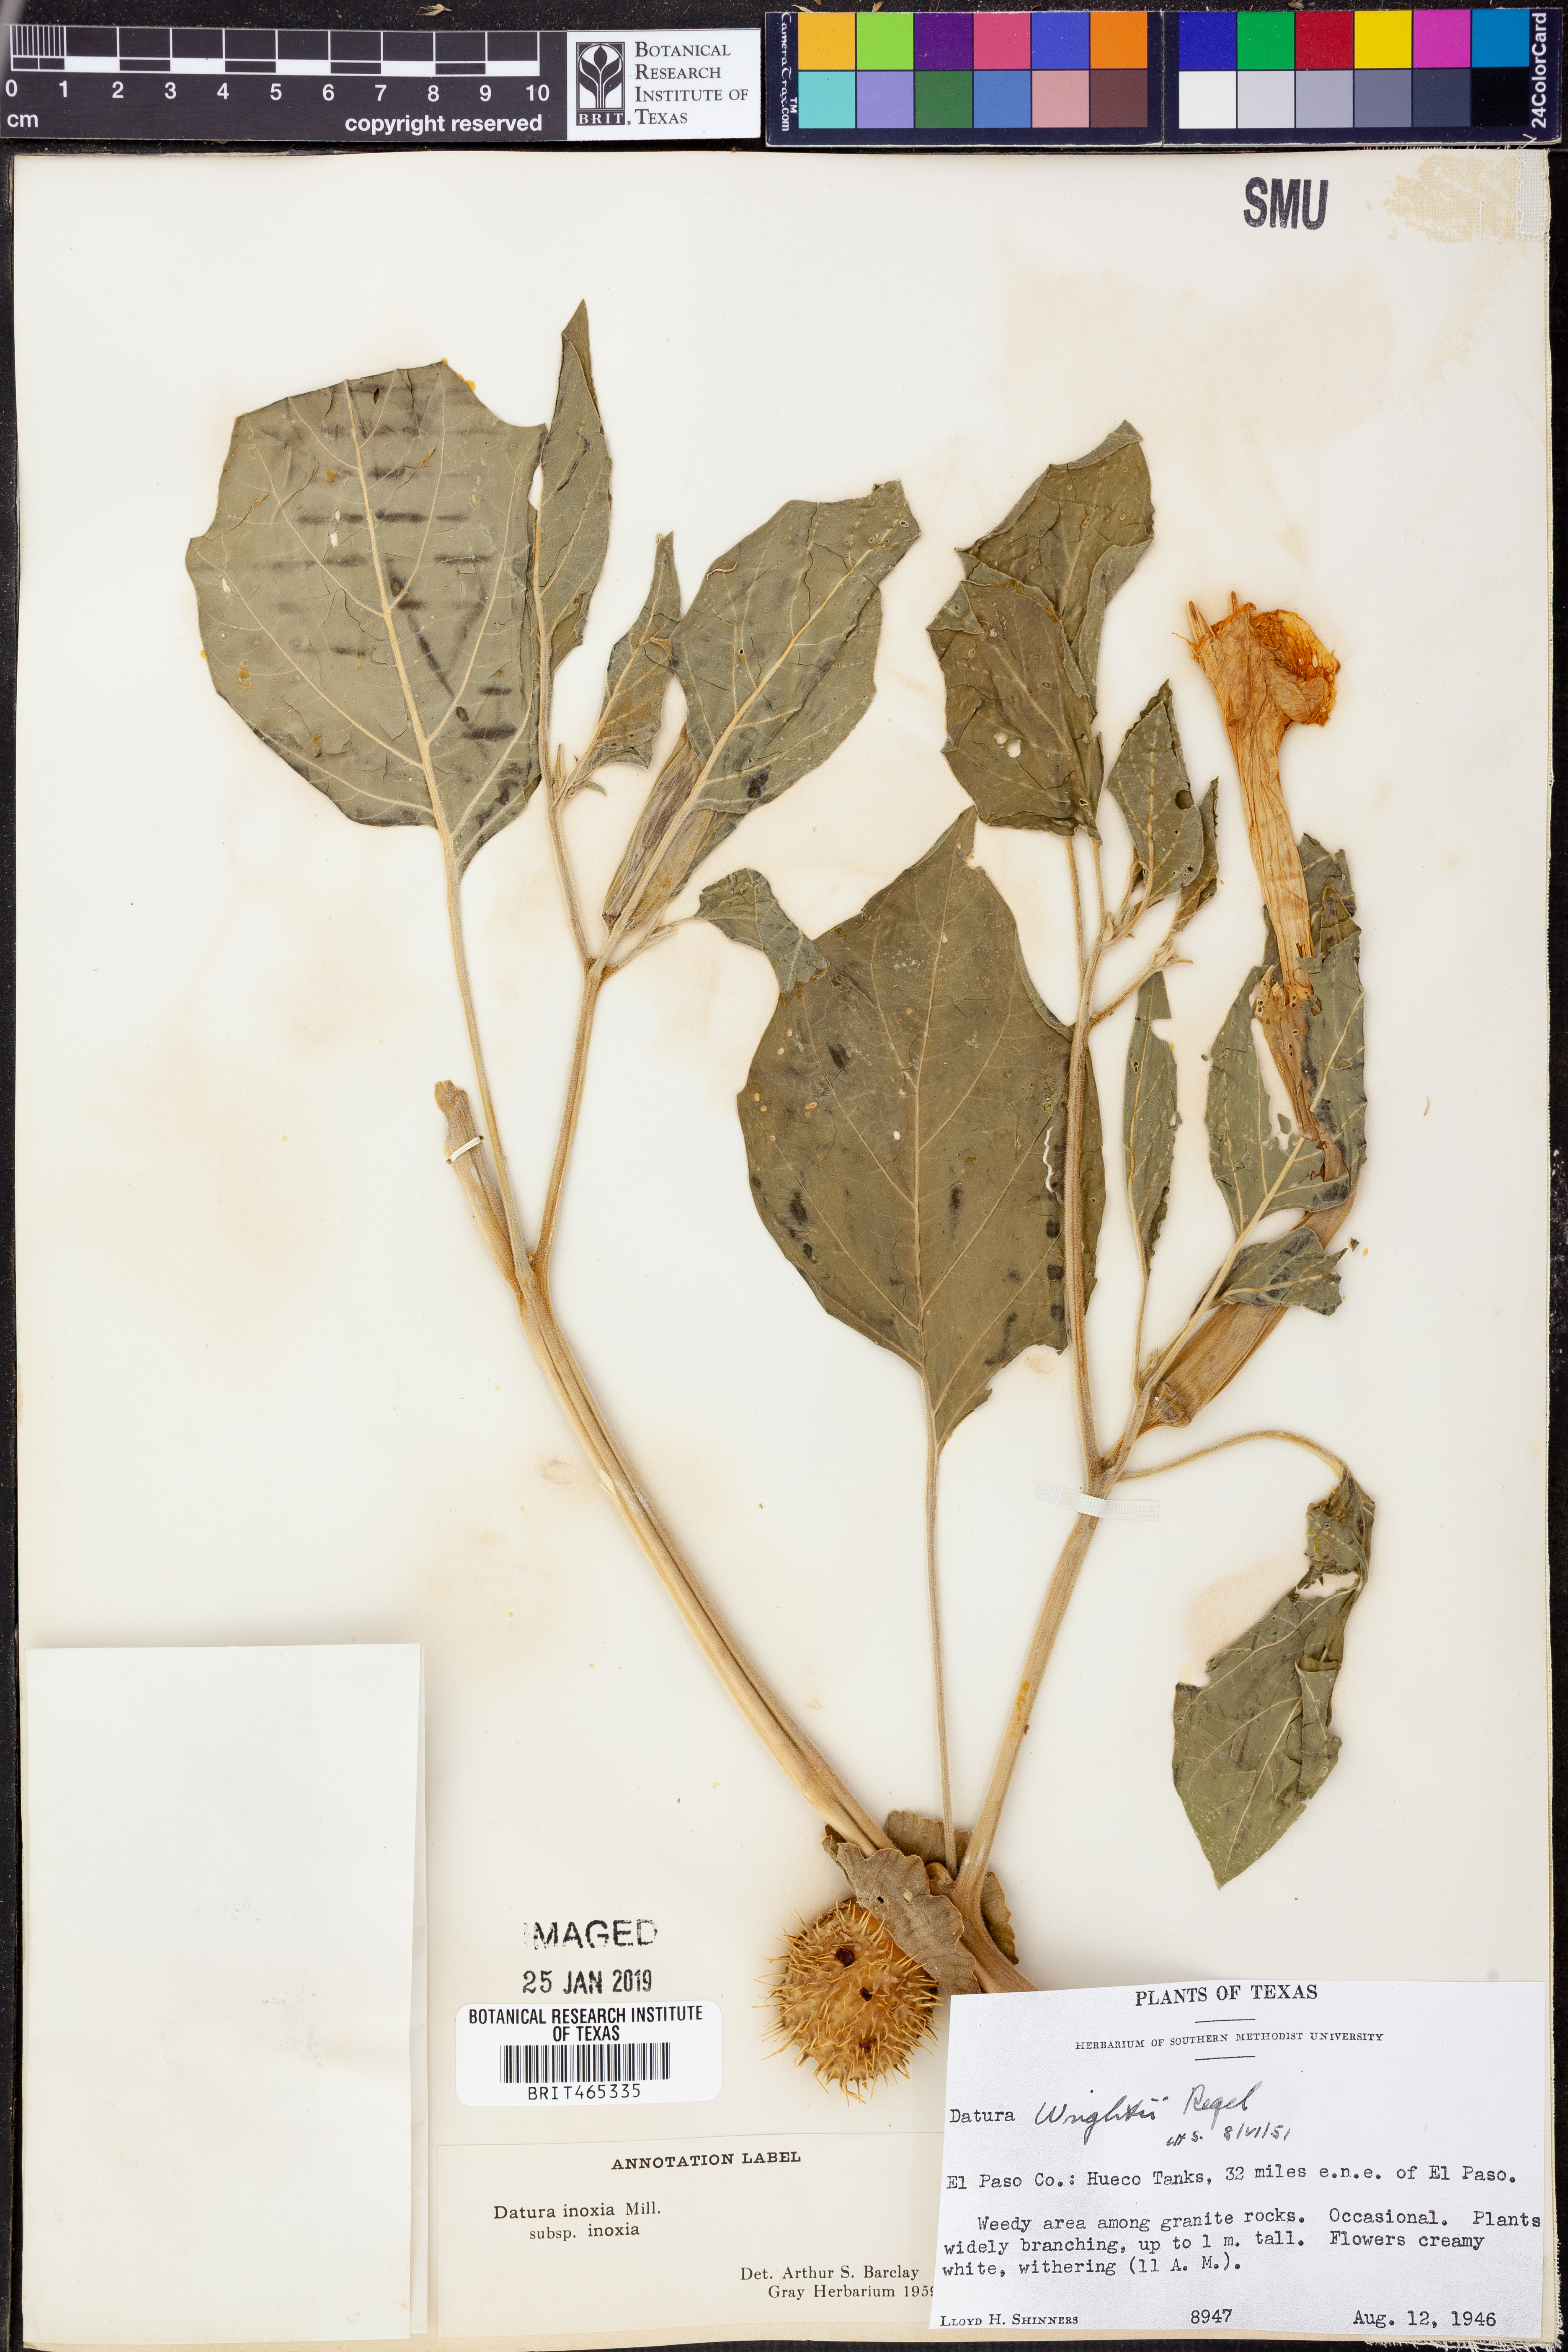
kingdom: Plantae
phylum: Tracheophyta
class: Magnoliopsida
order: Solanales
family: Solanaceae
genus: Datura
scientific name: Datura innoxia
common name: Downy thorn-apple
